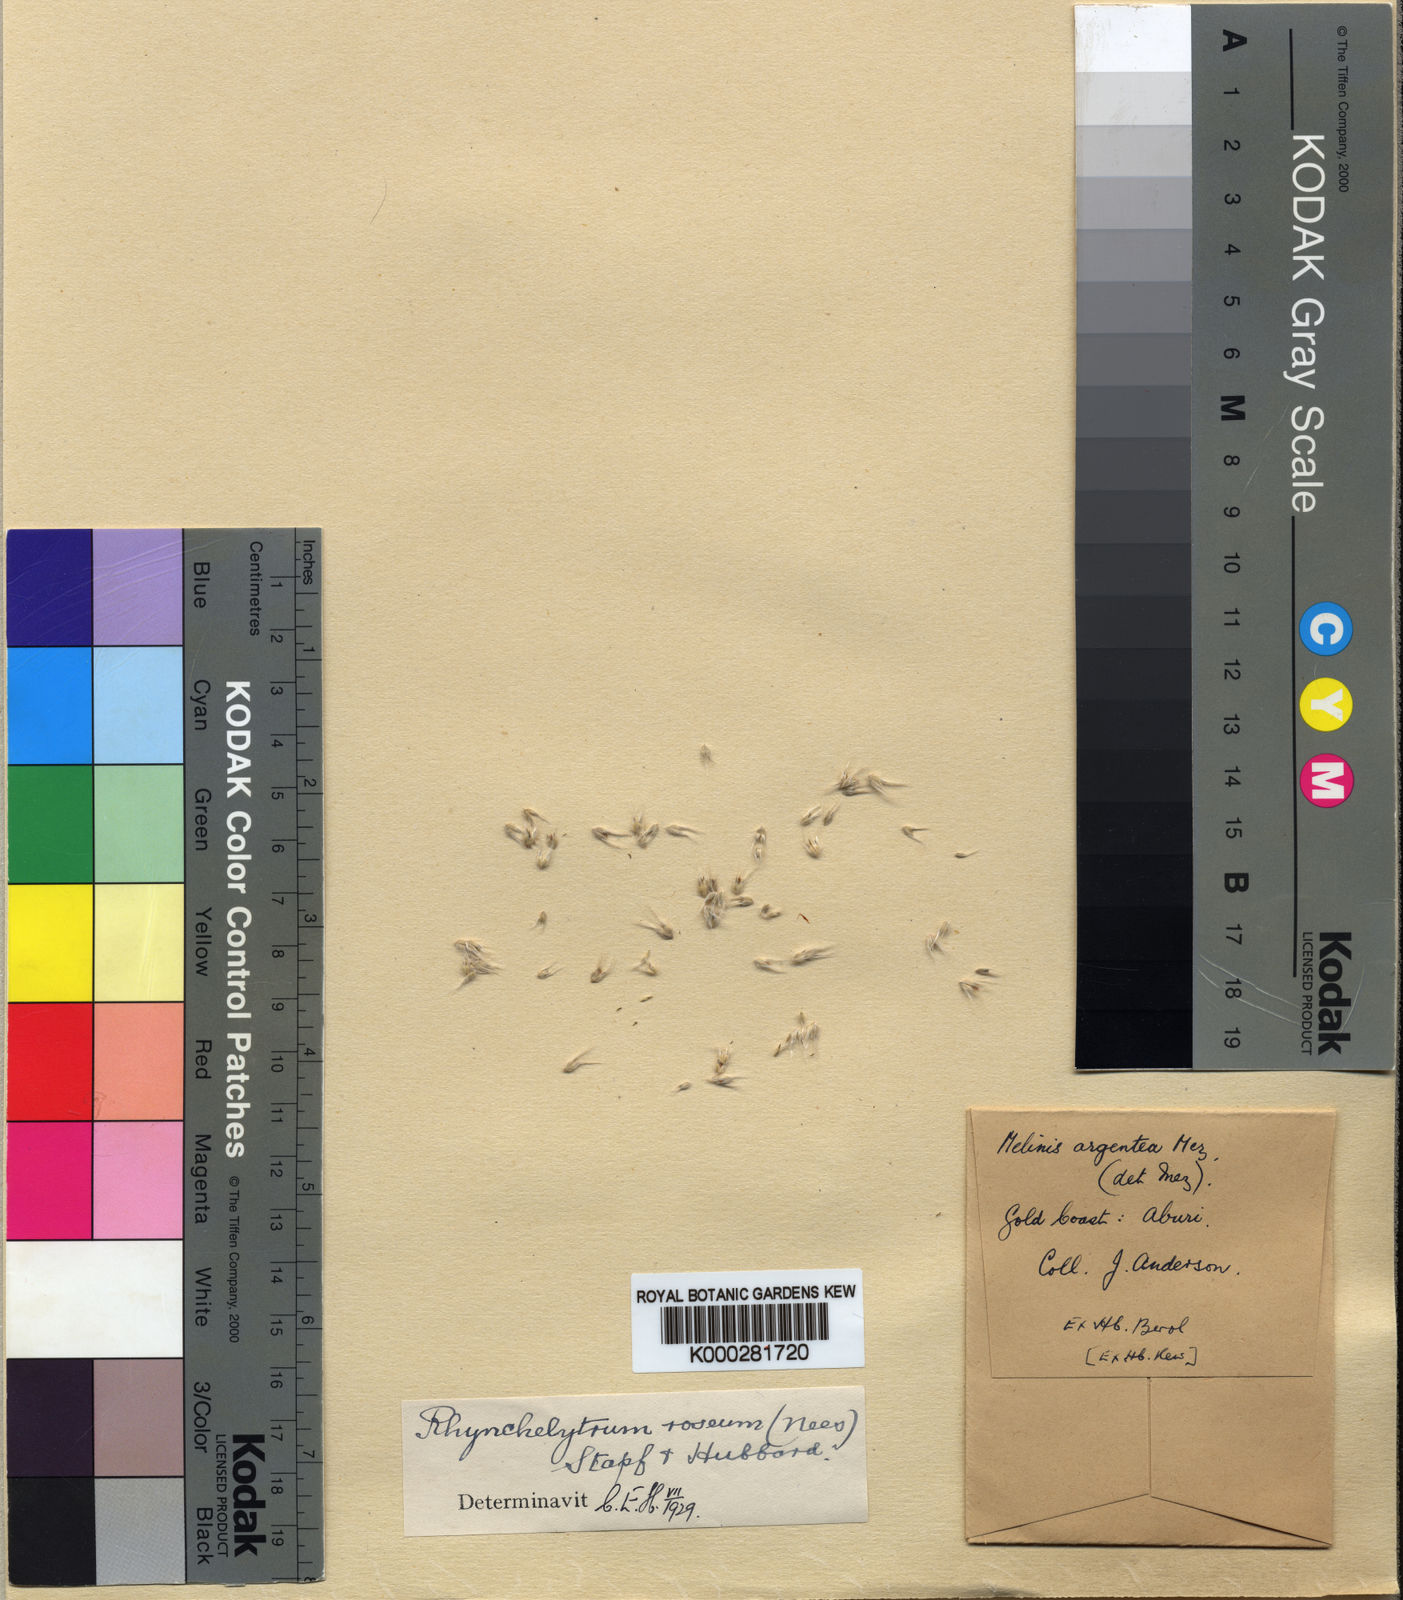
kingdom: Plantae
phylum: Tracheophyta
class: Liliopsida
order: Poales
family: Poaceae
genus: Melinis
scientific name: Melinis repens
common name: Rose natal grass
